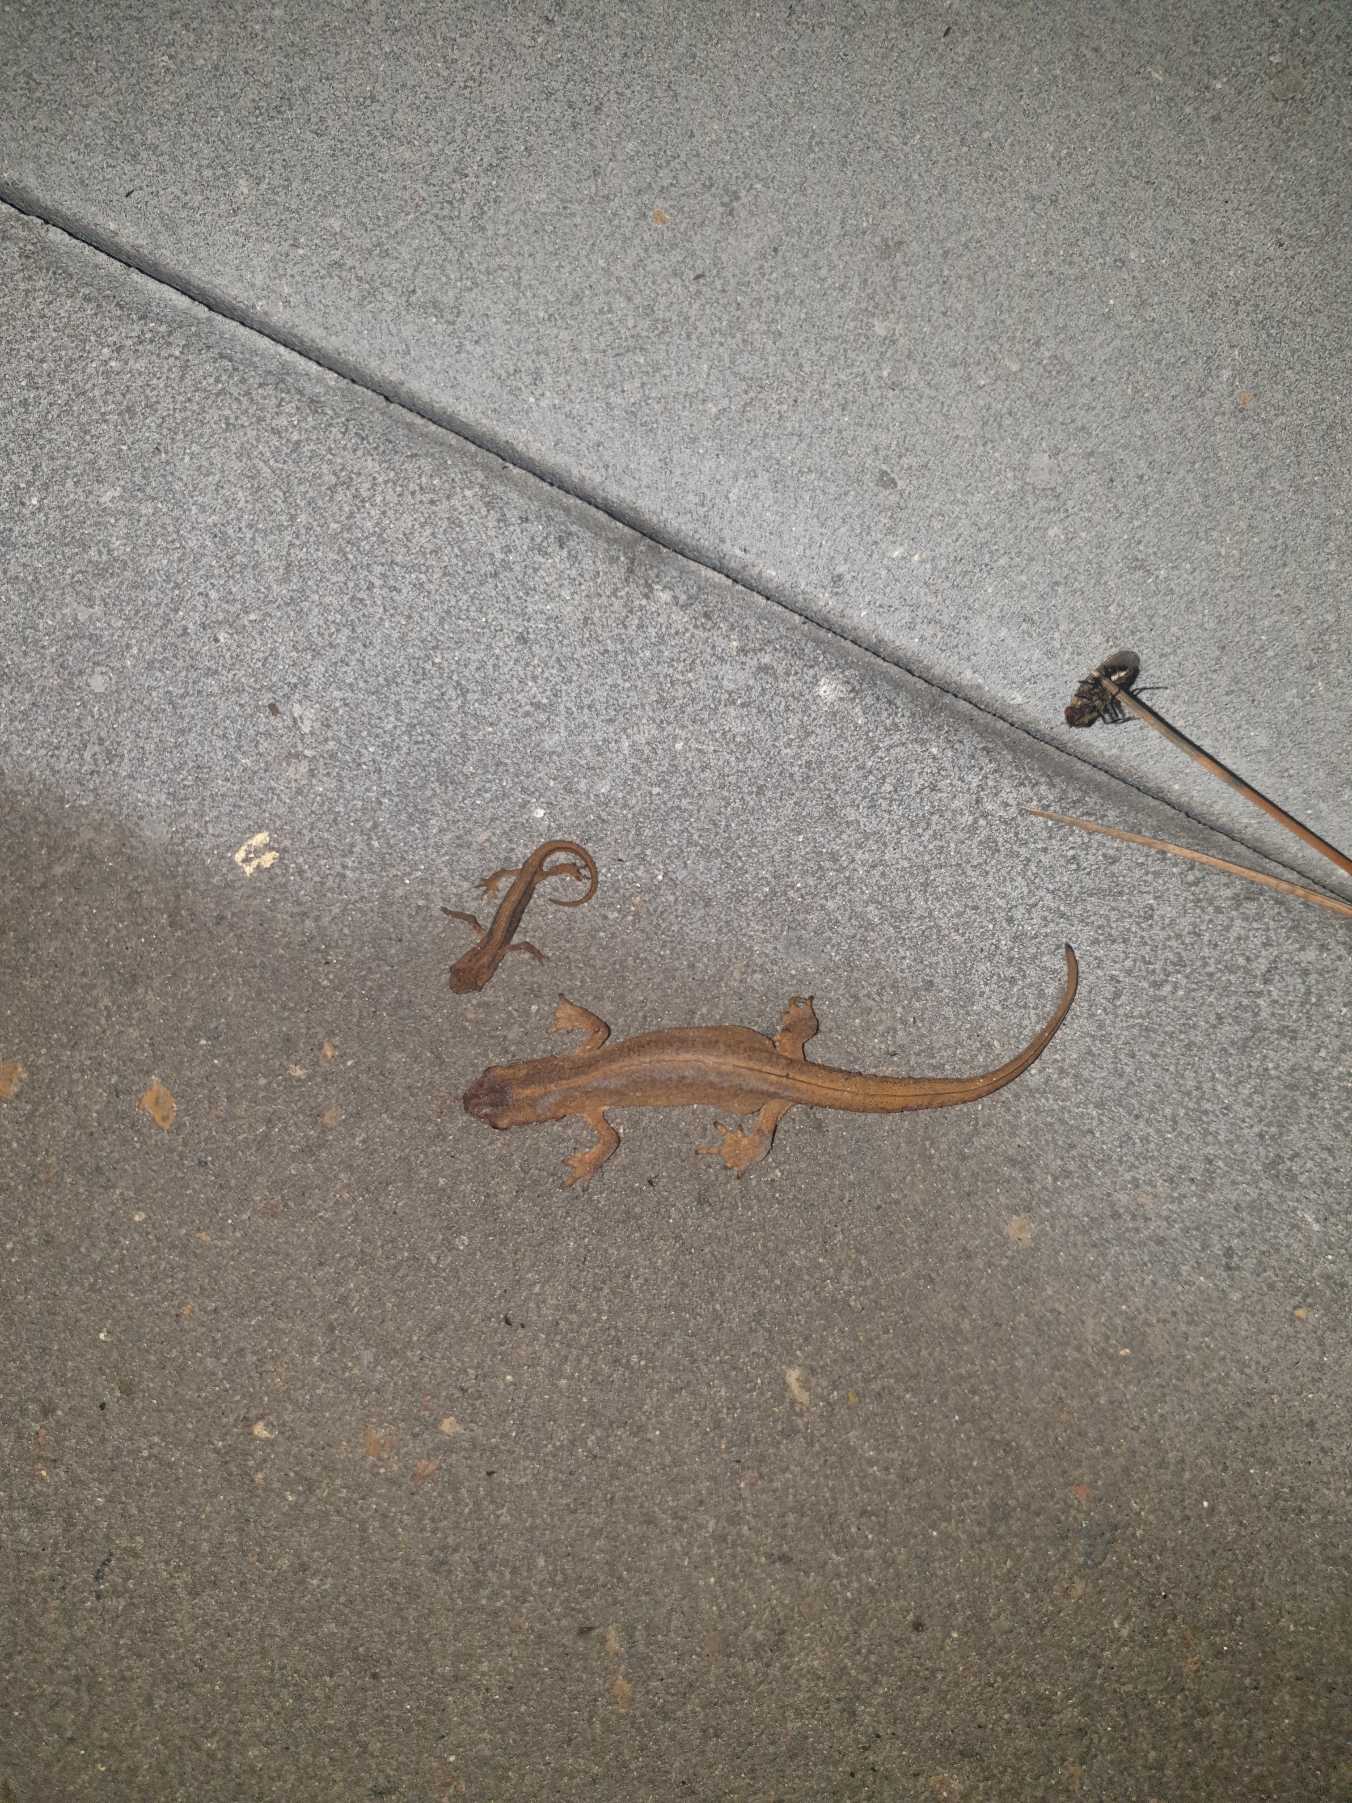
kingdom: Animalia
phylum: Chordata
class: Amphibia
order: Caudata
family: Salamandridae
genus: Lissotriton
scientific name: Lissotriton vulgaris
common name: Lille vandsalamander
